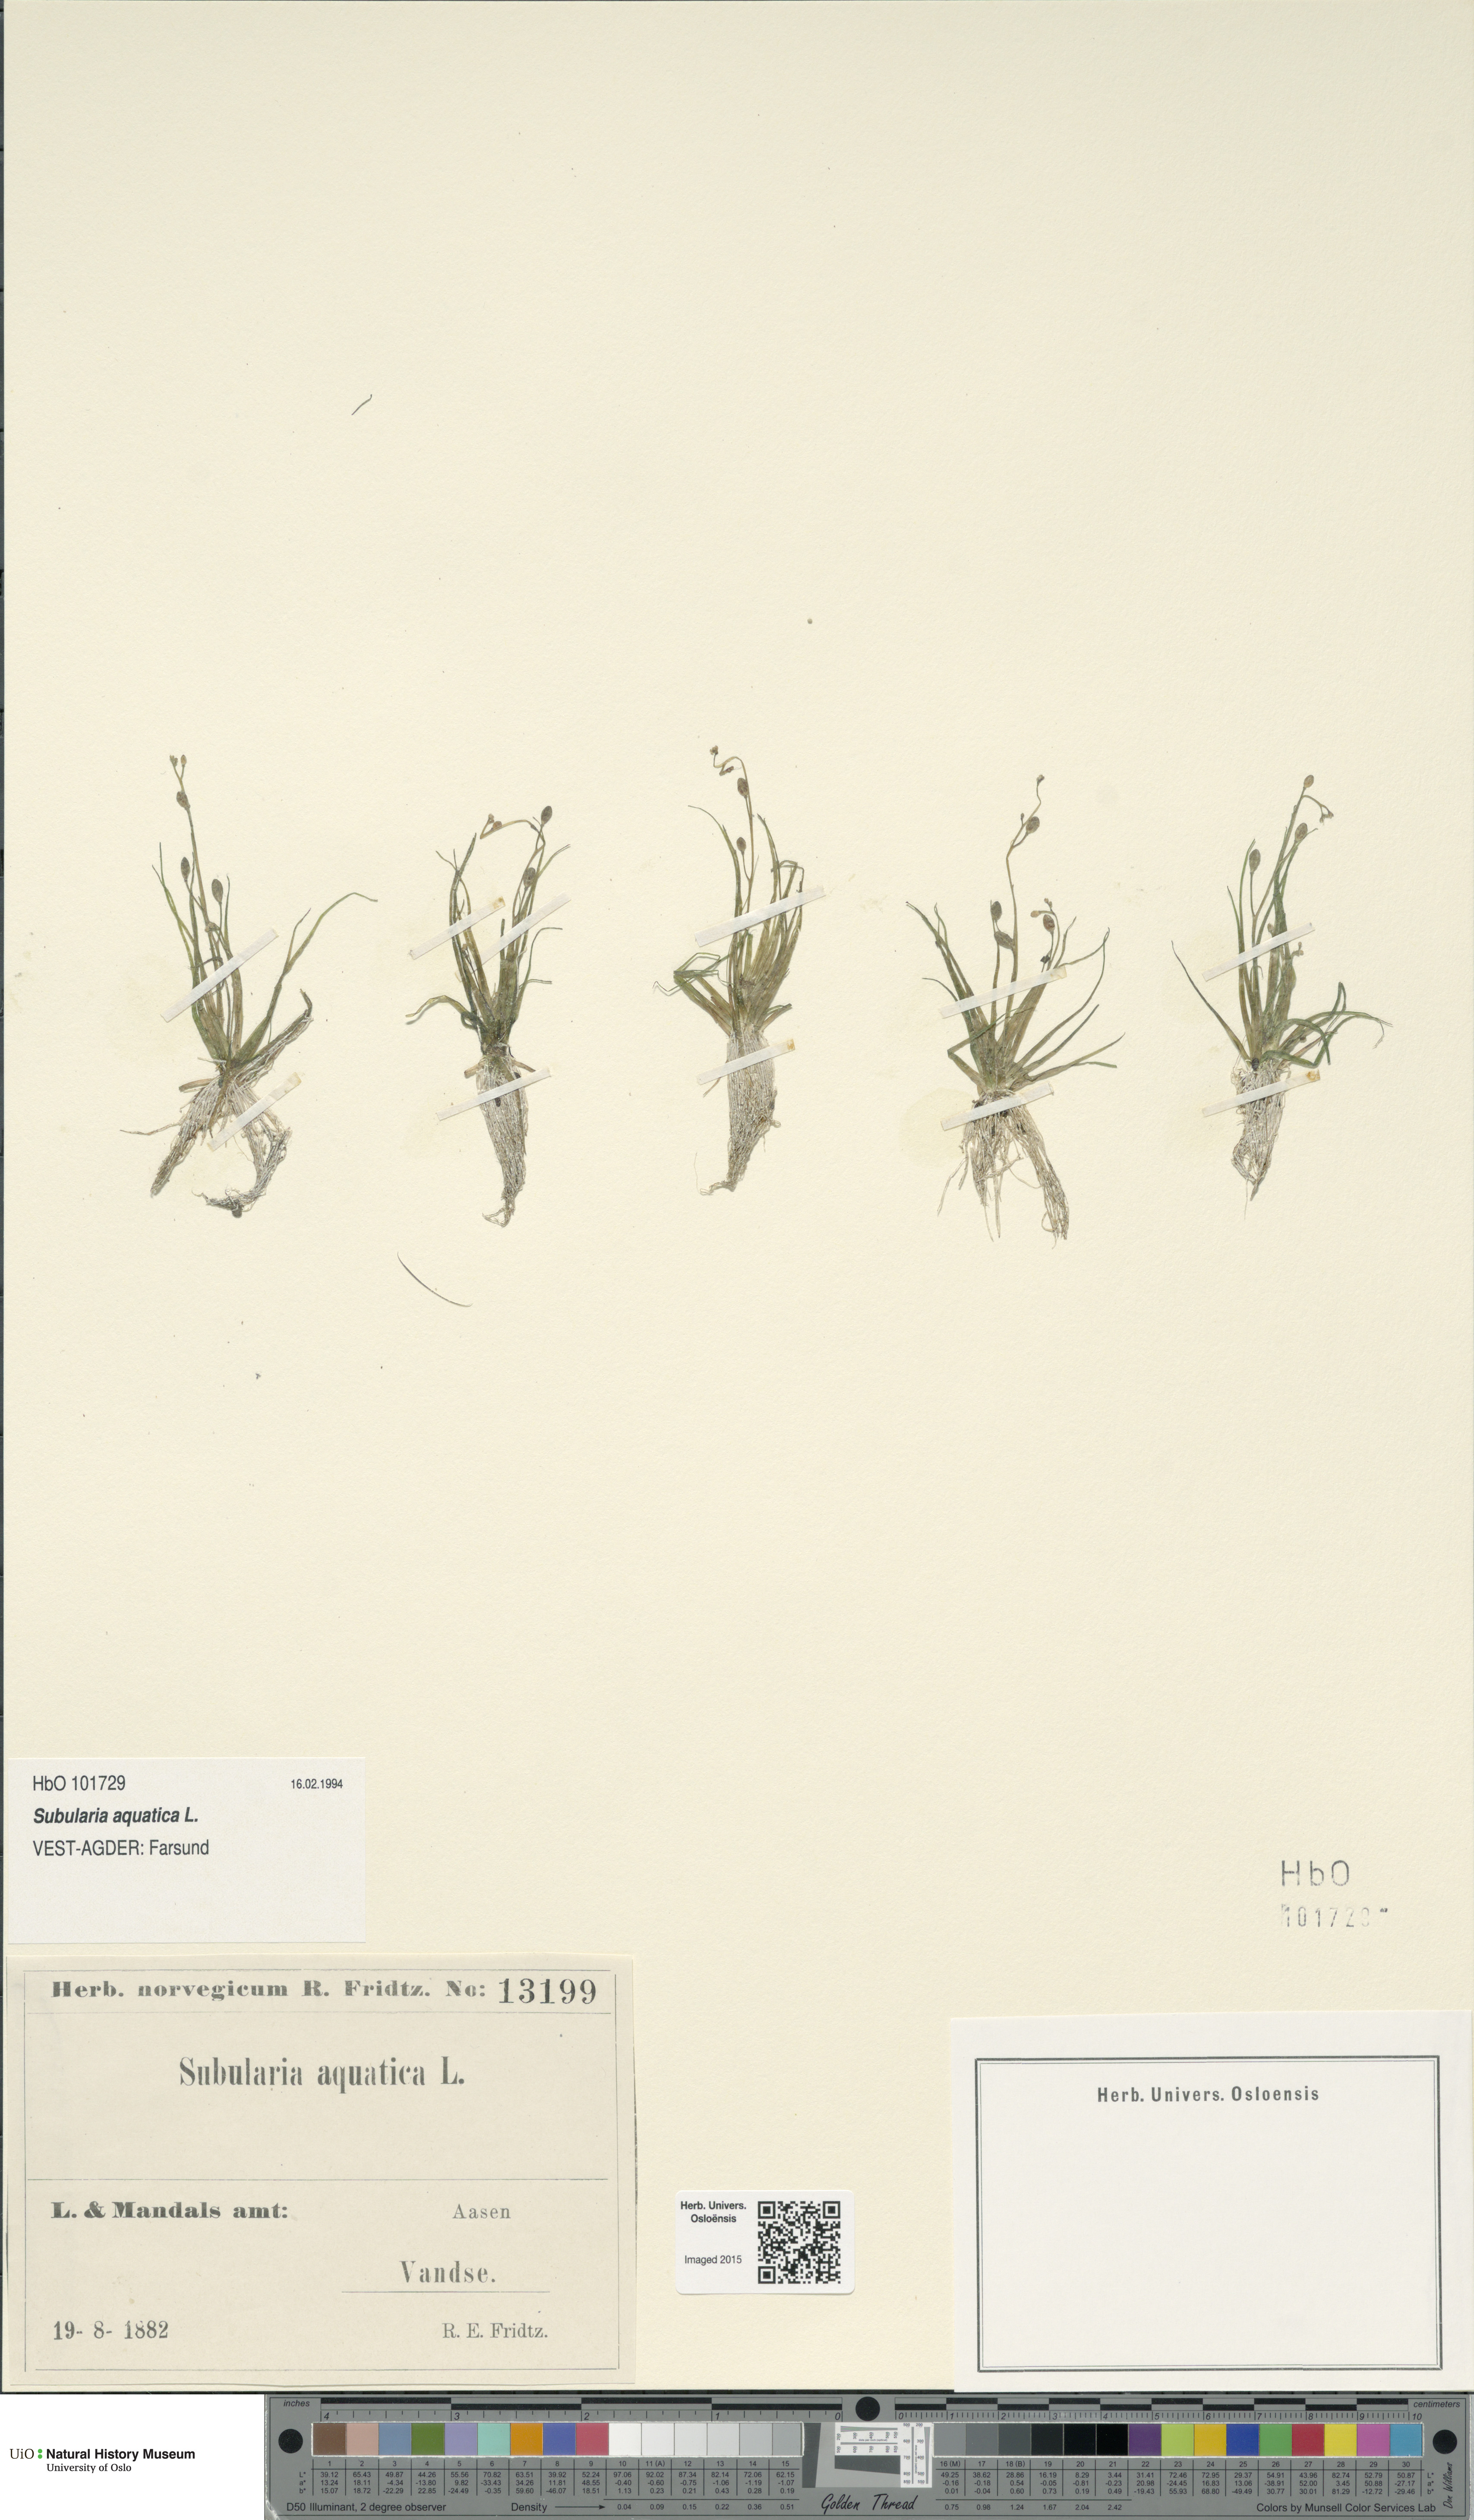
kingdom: Plantae
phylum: Tracheophyta
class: Magnoliopsida
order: Brassicales
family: Brassicaceae
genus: Subularia
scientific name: Subularia aquatica
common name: Awlwort
